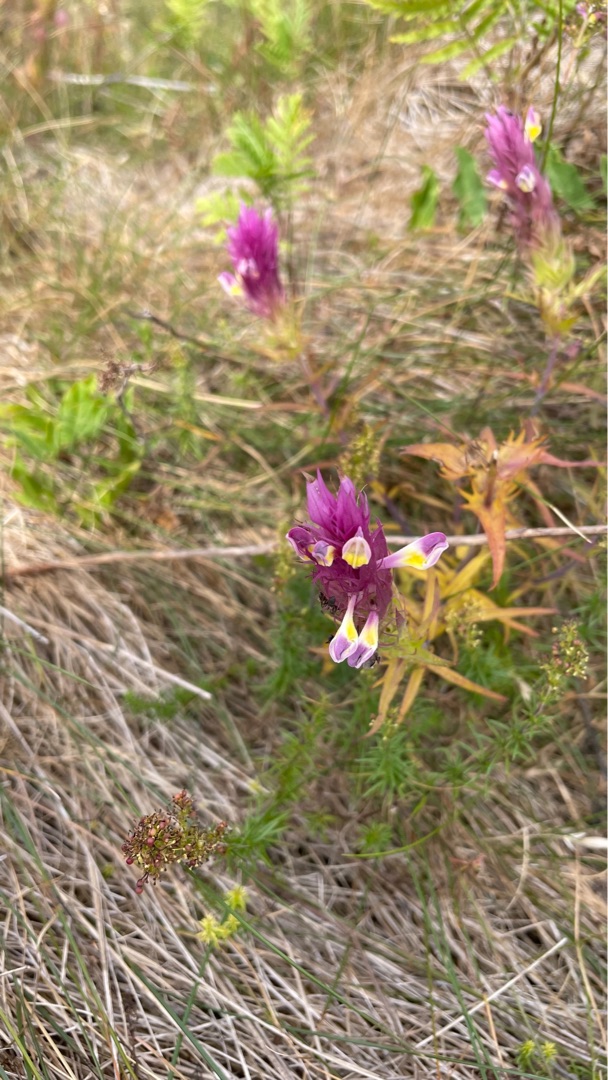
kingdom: Plantae
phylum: Tracheophyta
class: Magnoliopsida
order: Lamiales
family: Orobanchaceae
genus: Melampyrum
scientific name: Melampyrum arvense
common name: Ager-kohvede
